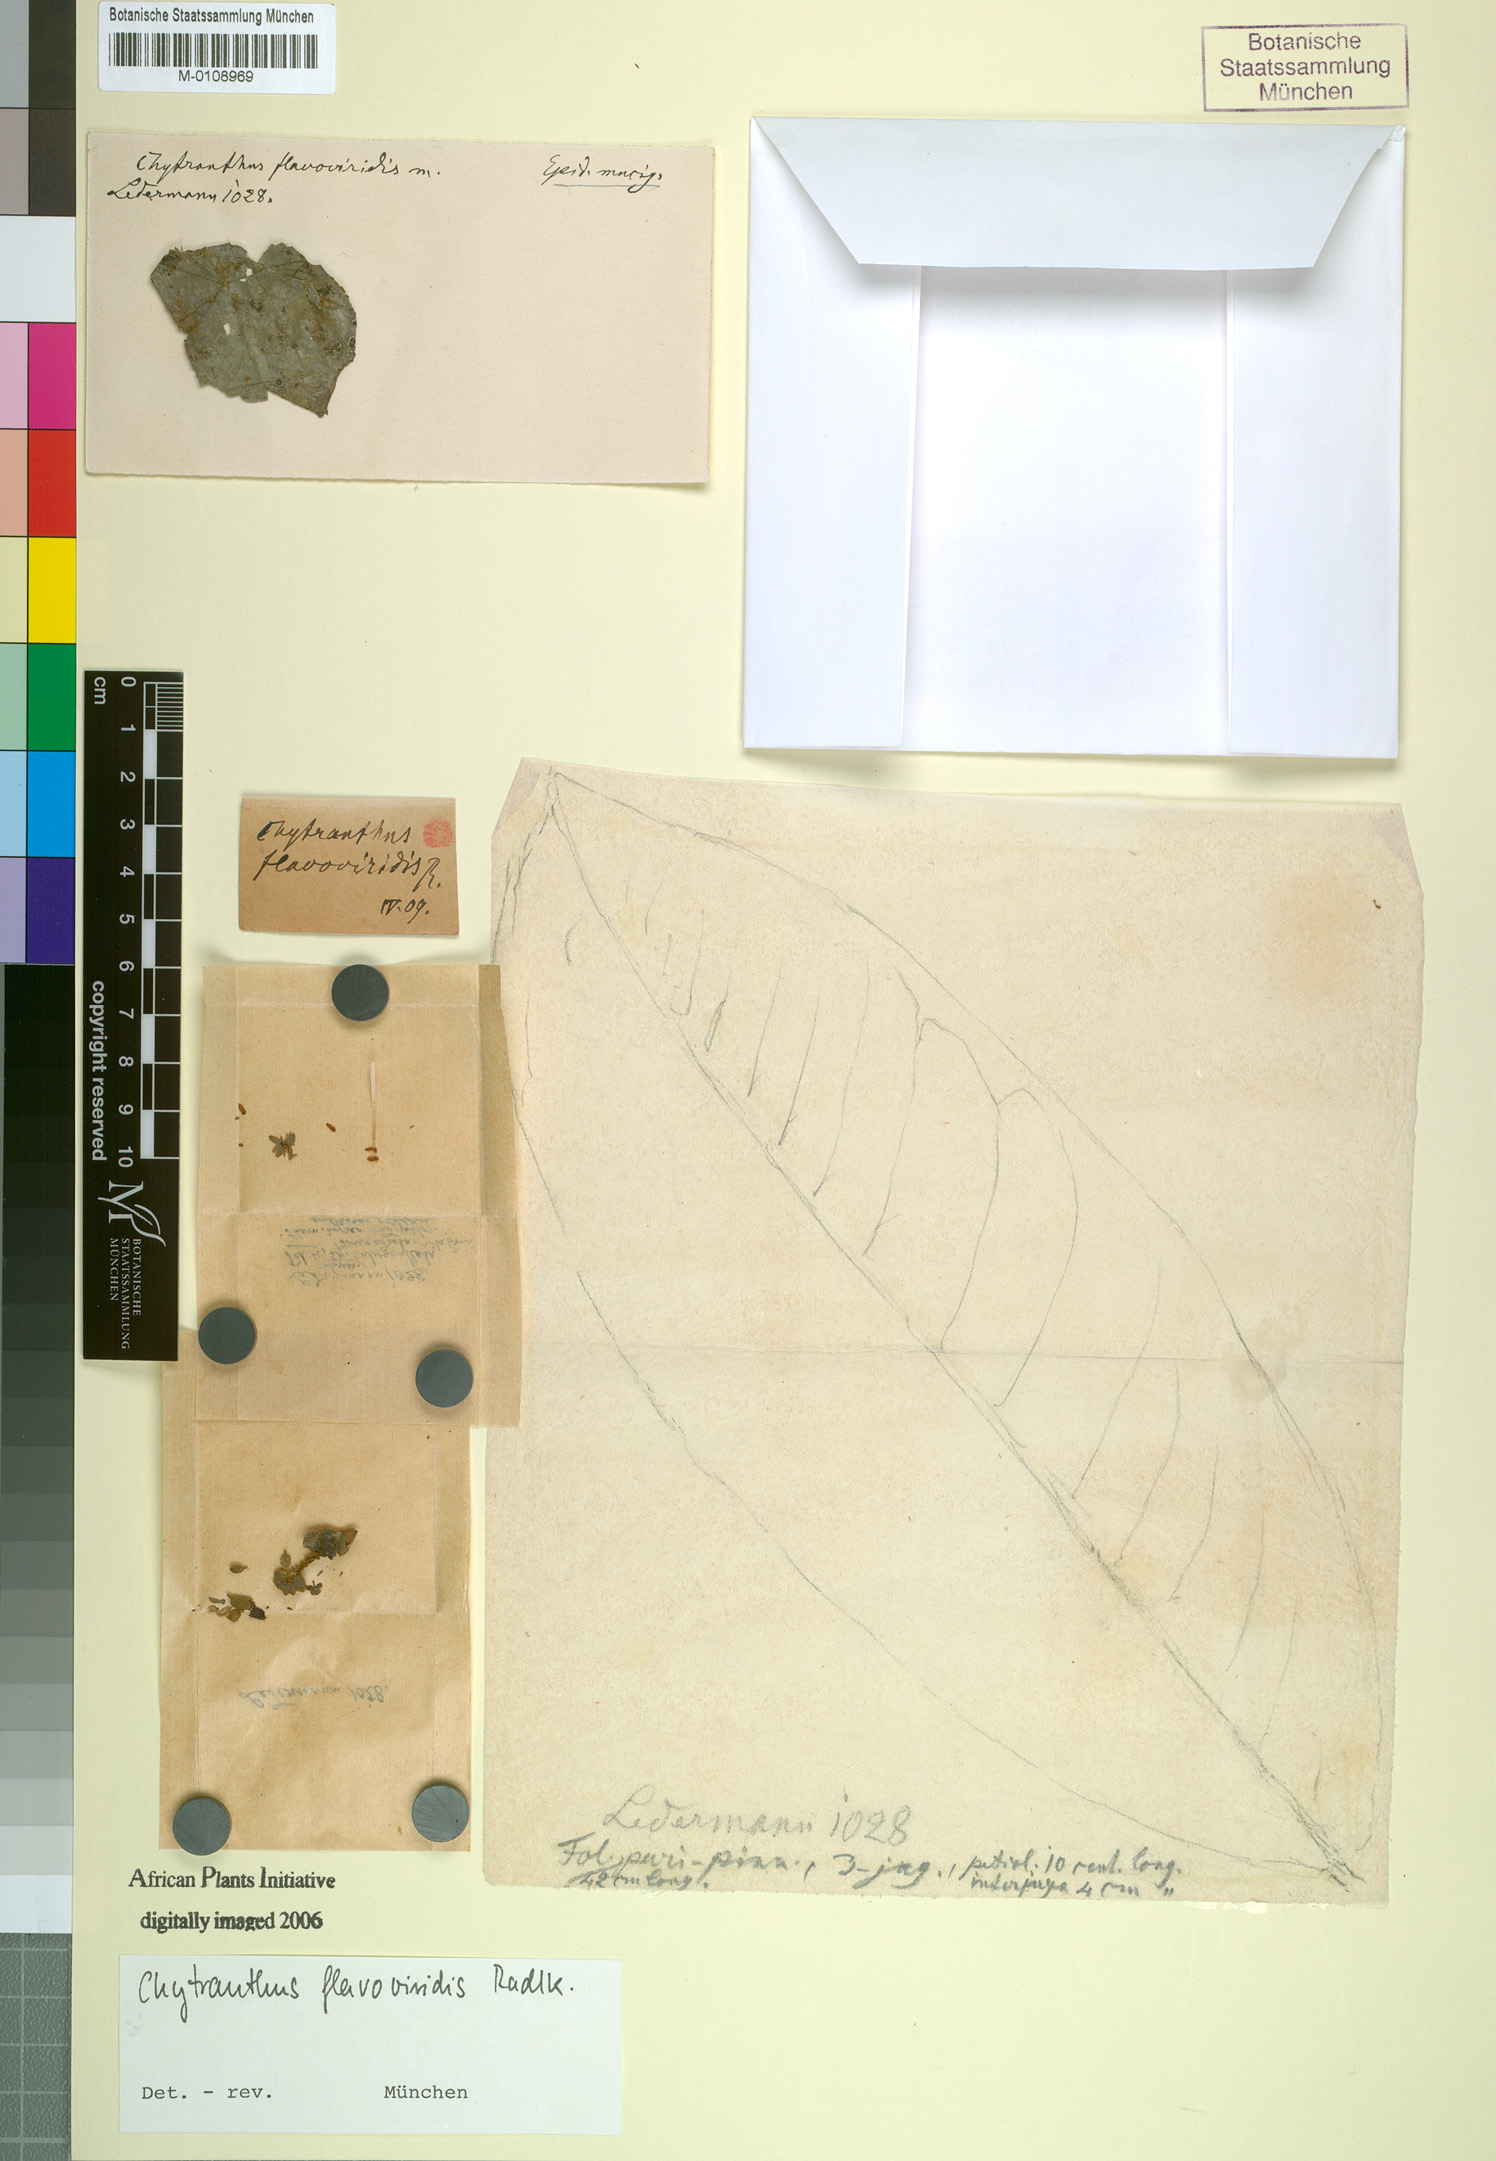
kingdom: Plantae
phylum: Tracheophyta
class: Magnoliopsida
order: Sapindales
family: Sapindaceae
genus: Chytranthus
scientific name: Chytranthus flavoviridis
